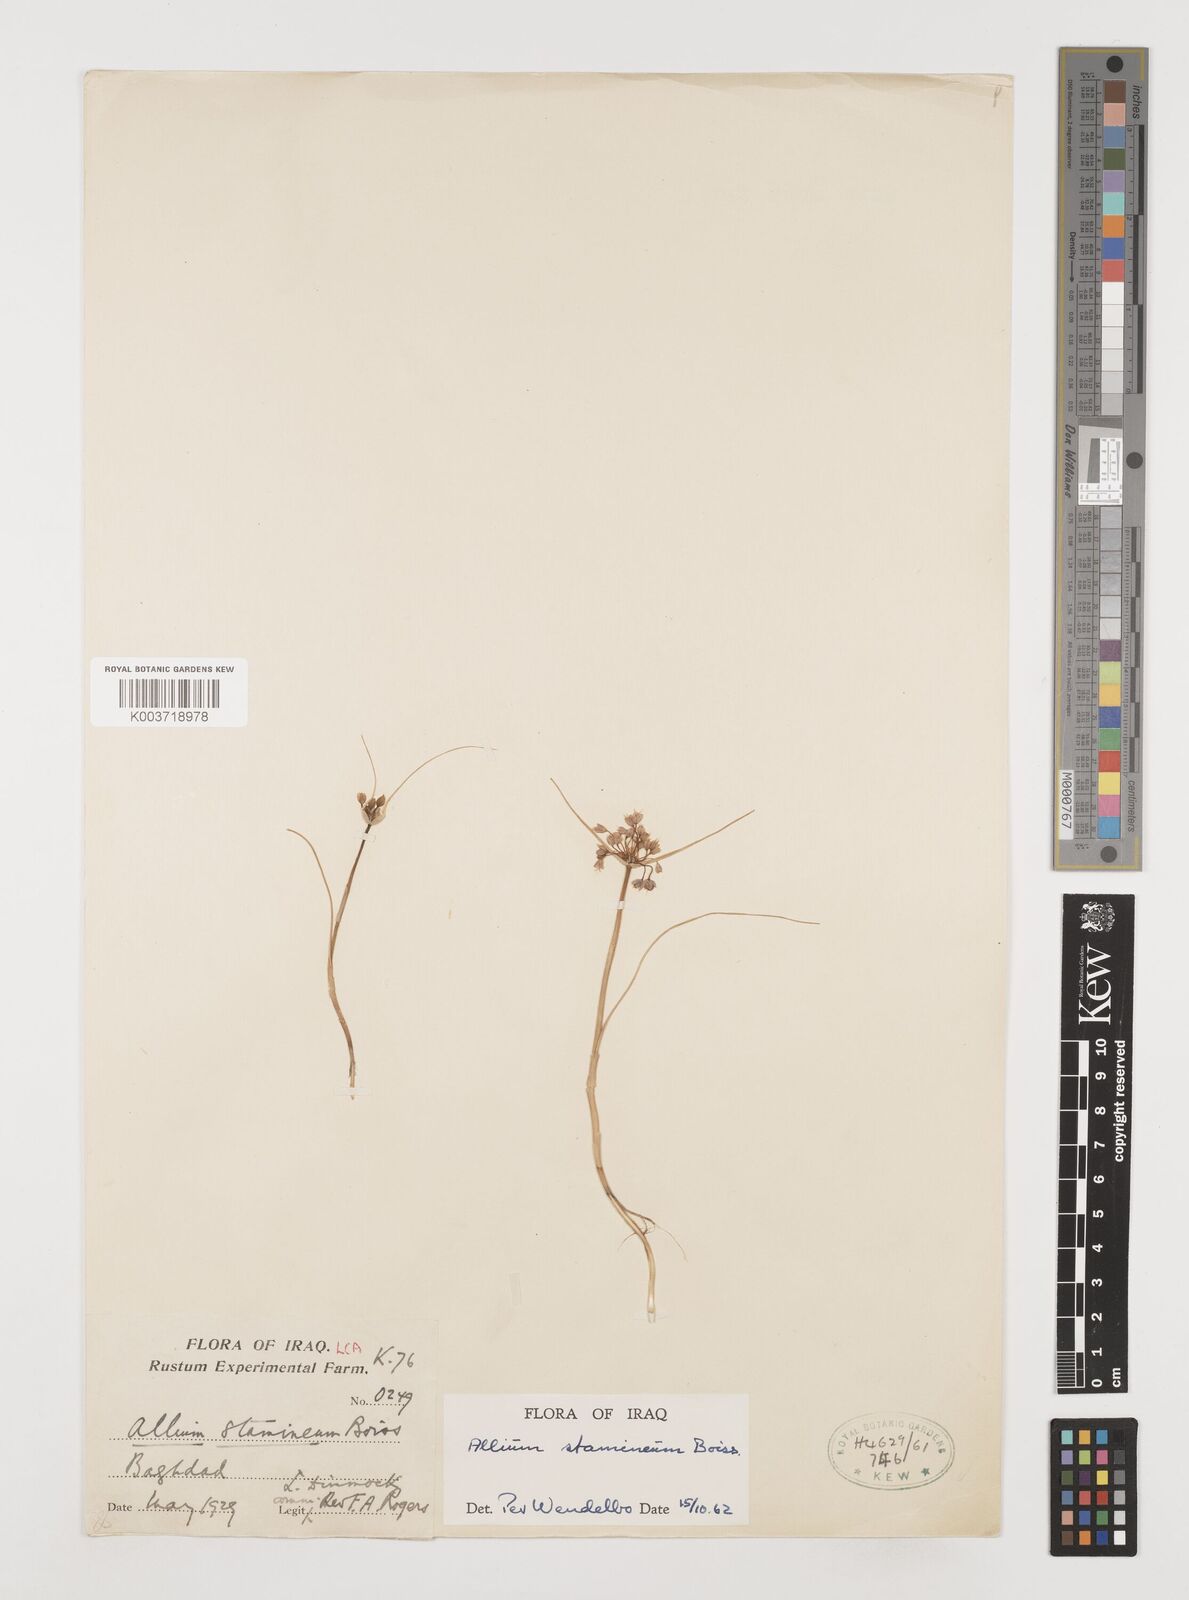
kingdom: Plantae
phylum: Tracheophyta
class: Liliopsida
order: Asparagales
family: Amaryllidaceae
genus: Allium
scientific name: Allium stamineum
